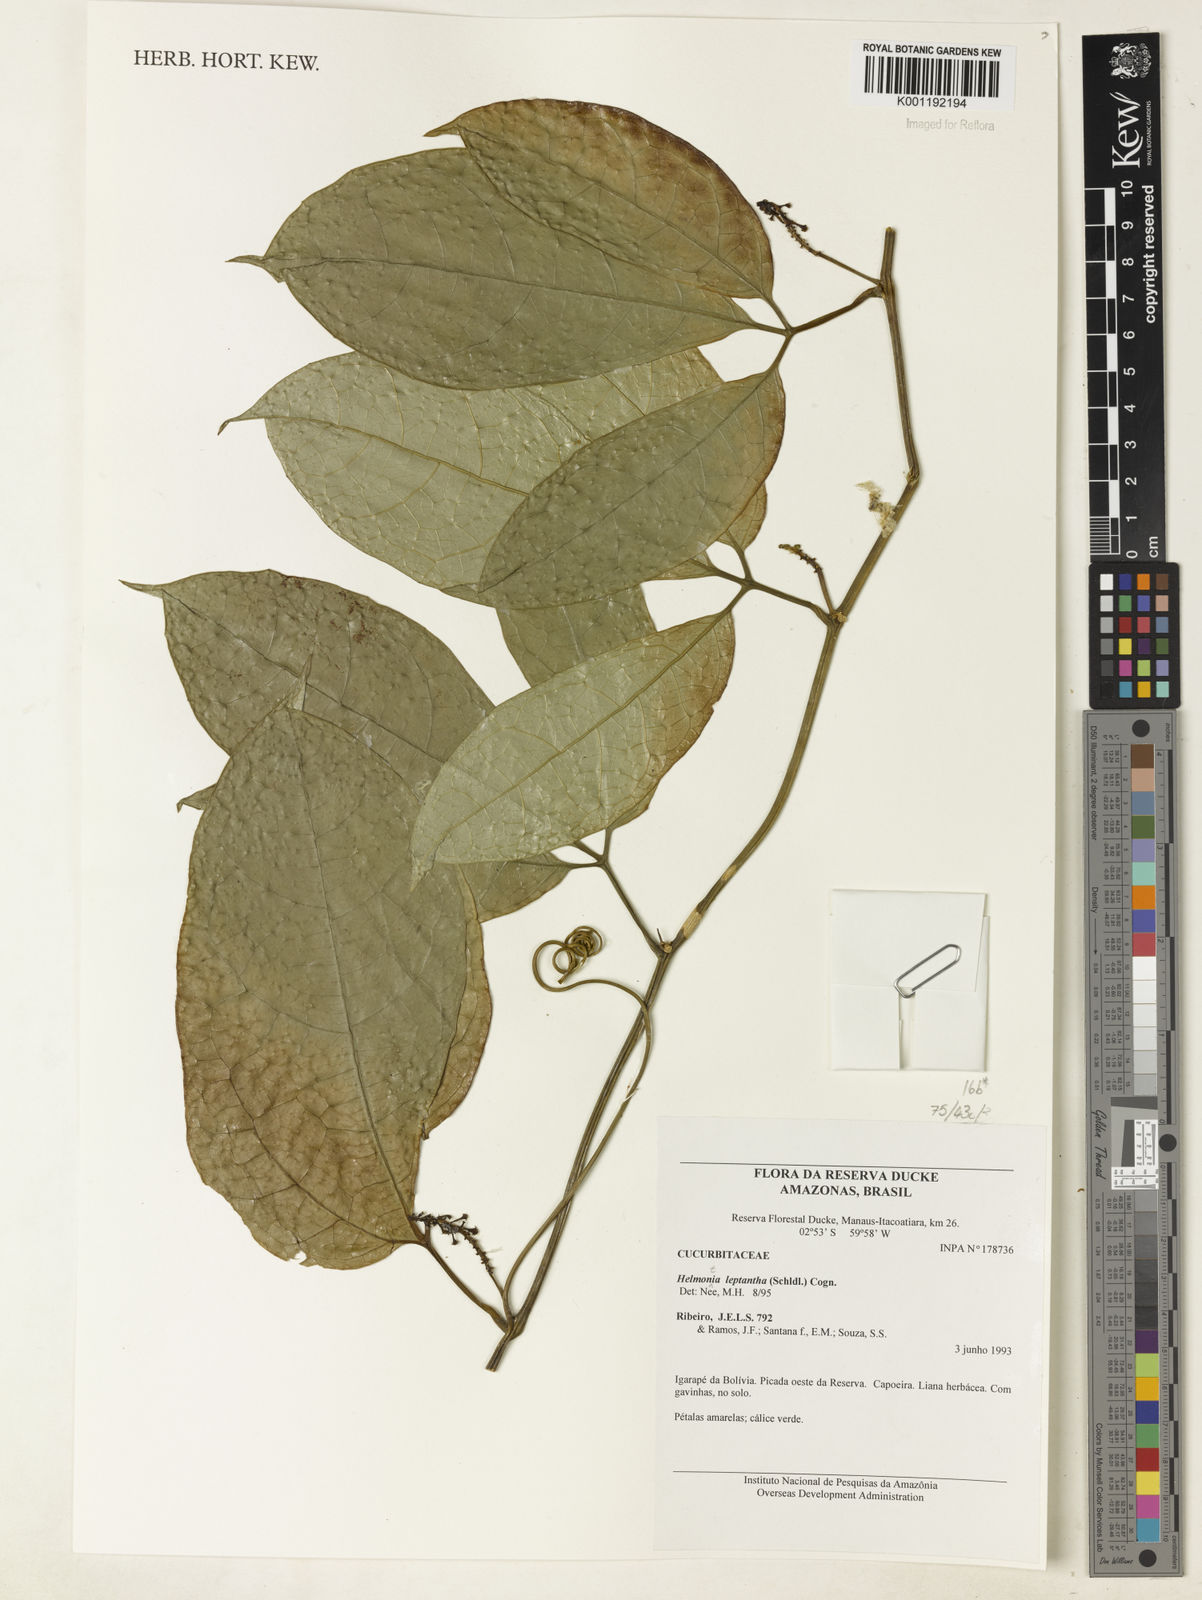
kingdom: Plantae
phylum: Tracheophyta
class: Magnoliopsida
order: Cucurbitales
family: Cucurbitaceae
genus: Helmontia
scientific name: Helmontia leptantha
